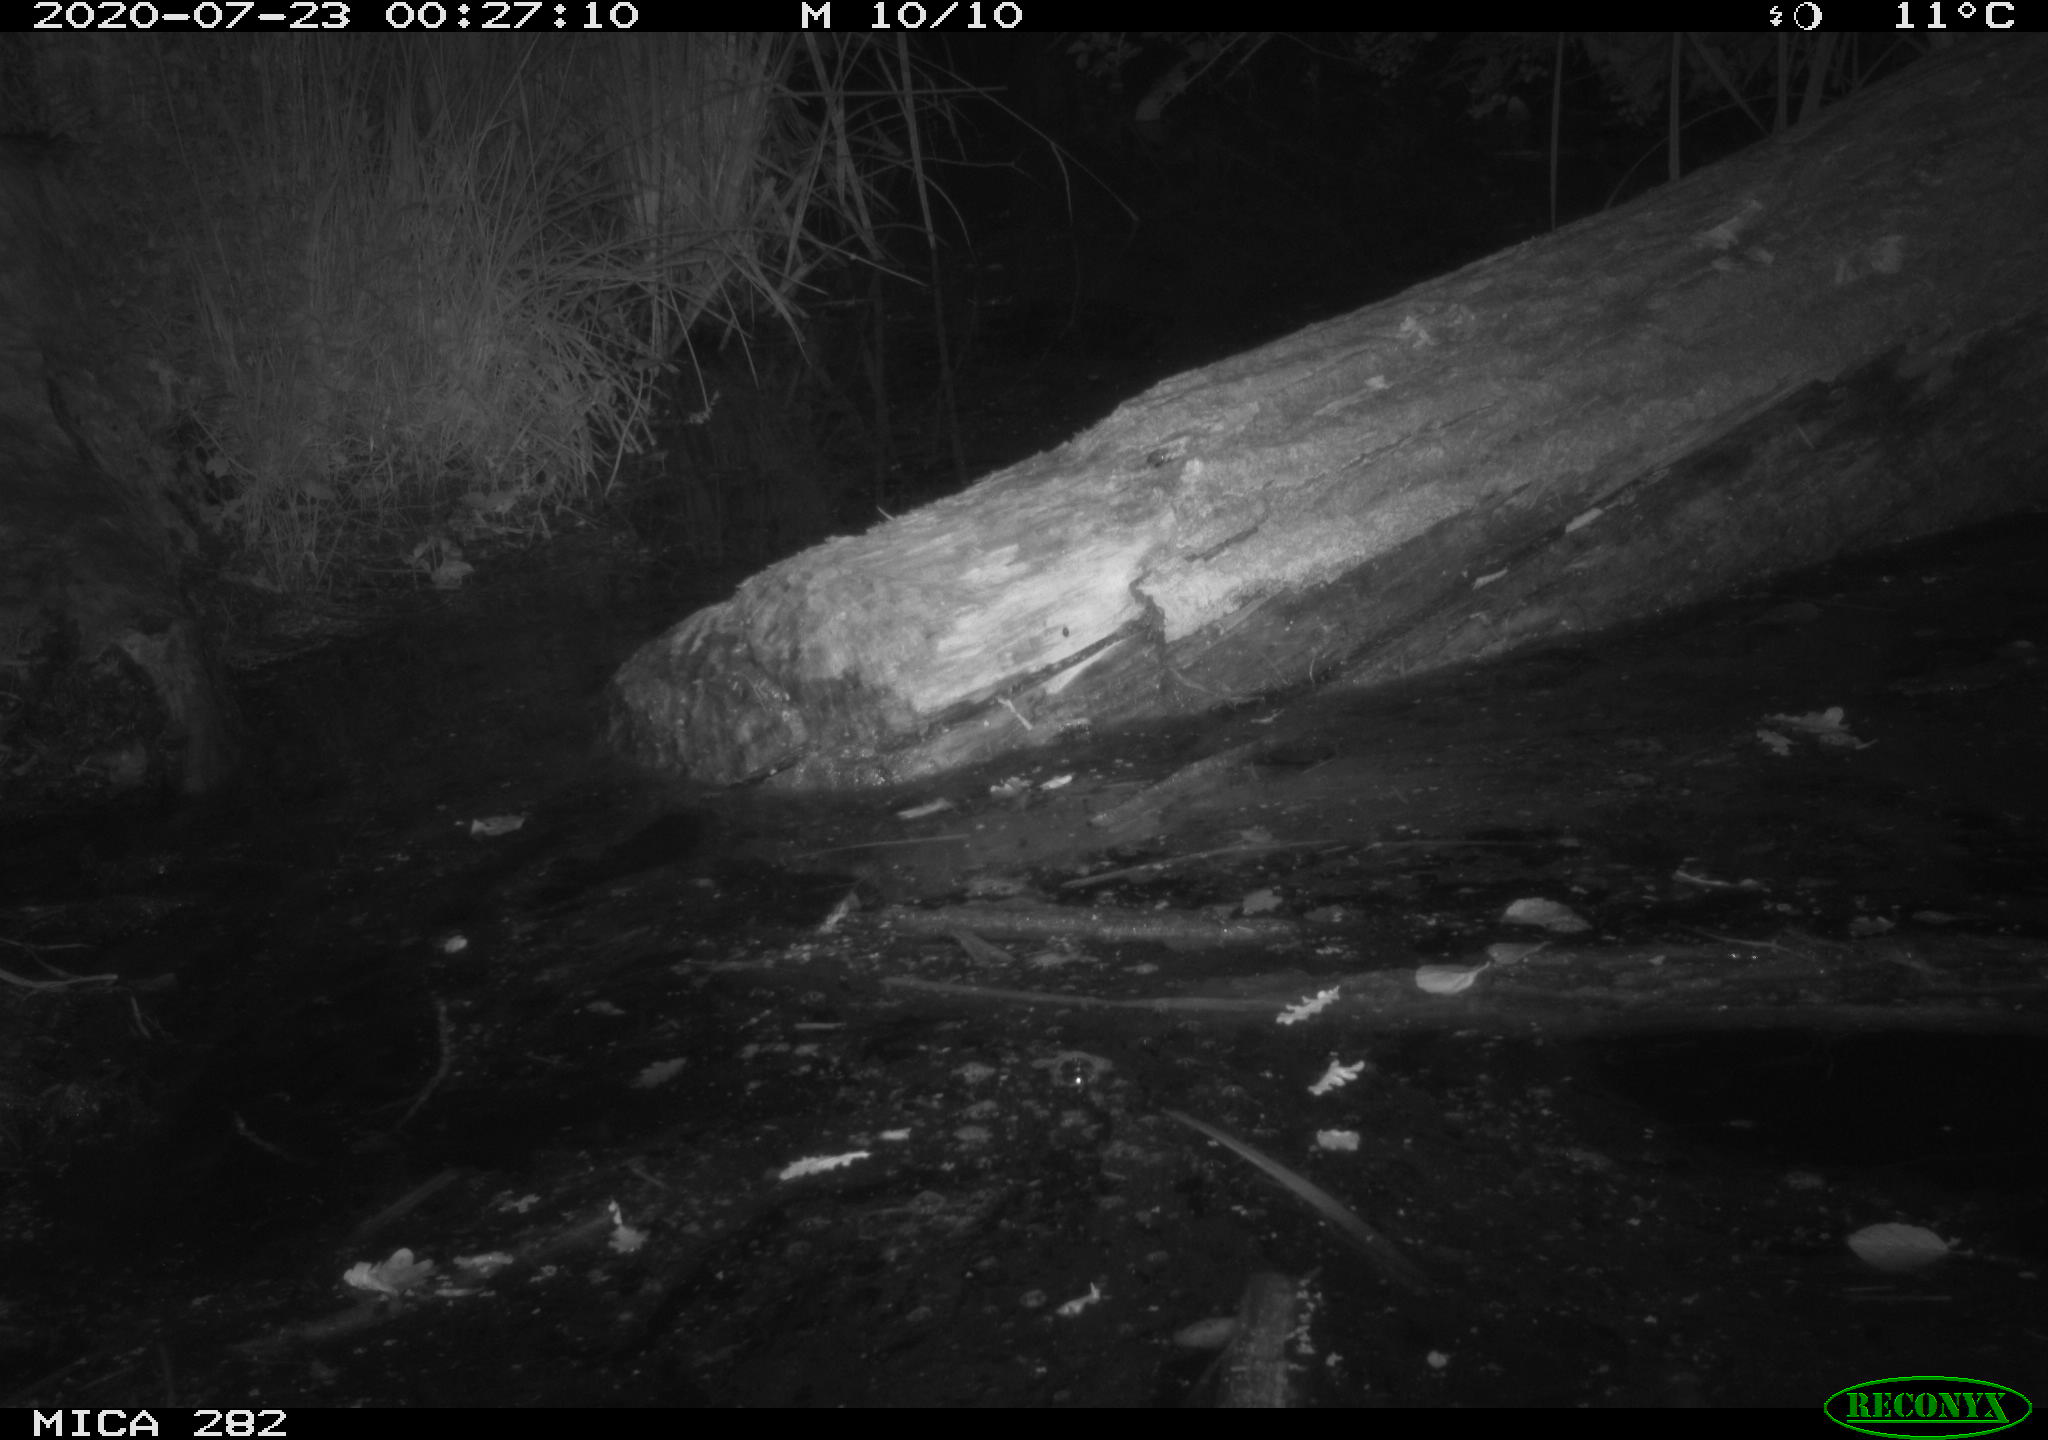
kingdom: Animalia
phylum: Chordata
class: Mammalia
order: Rodentia
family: Castoridae
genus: Castor
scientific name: Castor fiber
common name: Eurasian beaver
